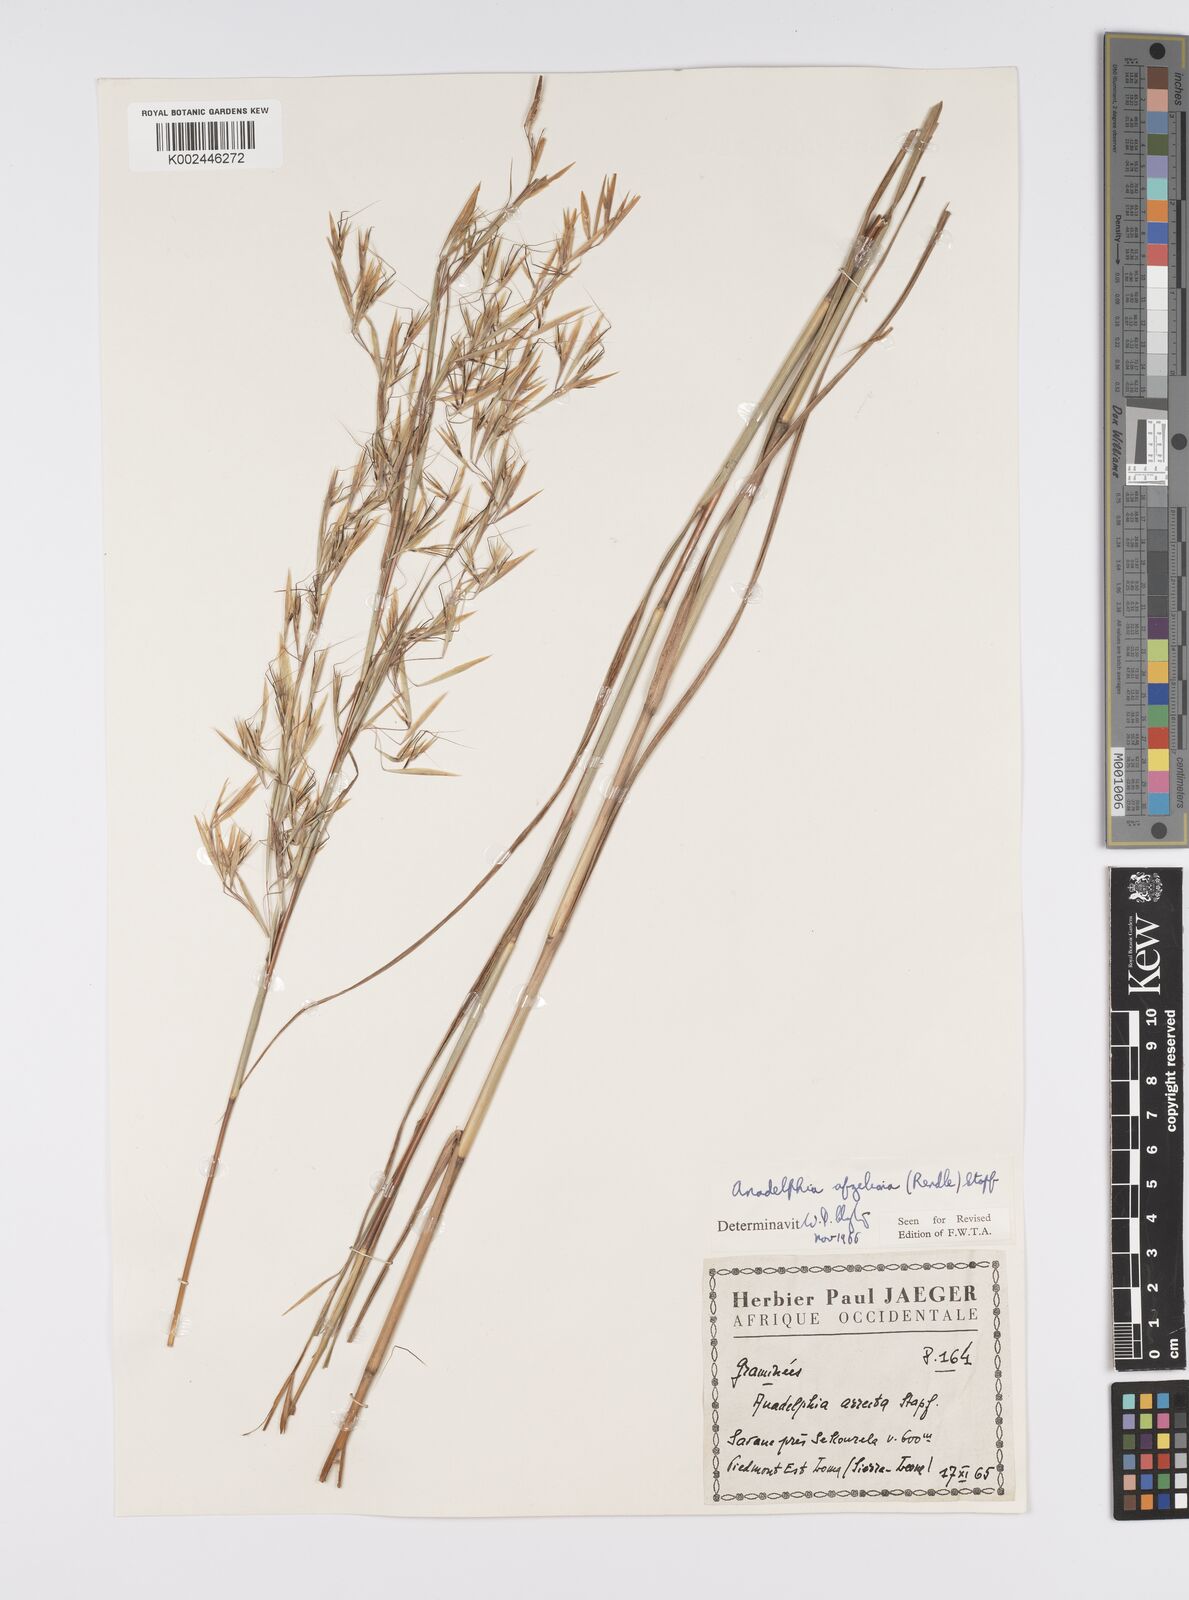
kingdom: Plantae
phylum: Tracheophyta
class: Liliopsida
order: Poales
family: Poaceae
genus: Anadelphia
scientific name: Anadelphia afzeliana
